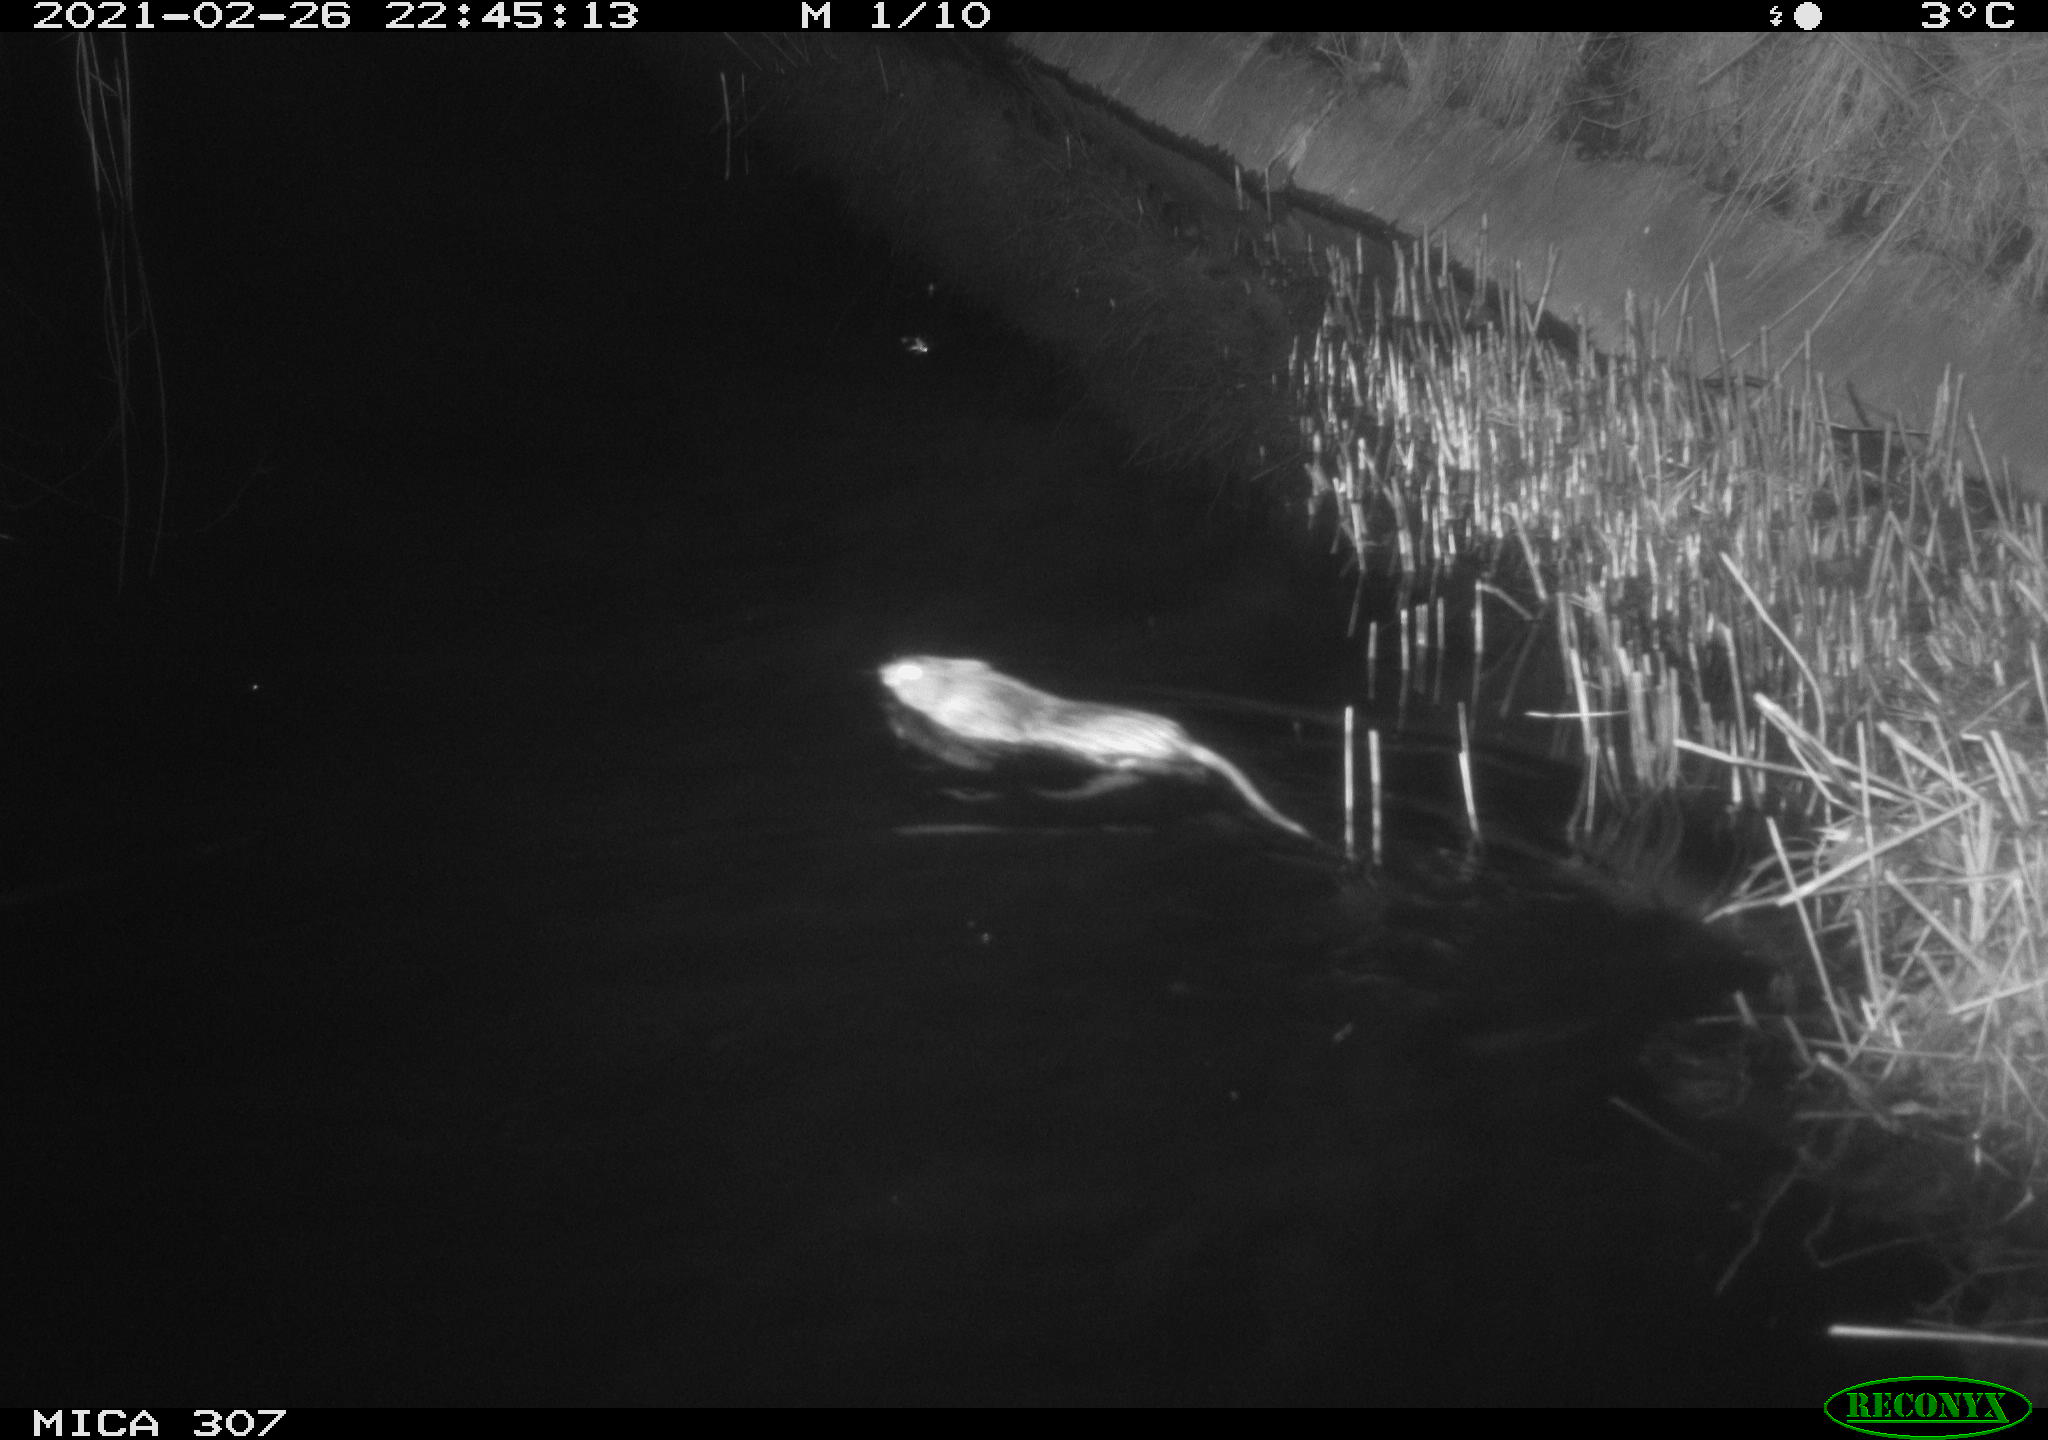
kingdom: Animalia
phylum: Chordata
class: Mammalia
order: Rodentia
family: Cricetidae
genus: Ondatra
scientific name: Ondatra zibethicus
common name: Muskrat
